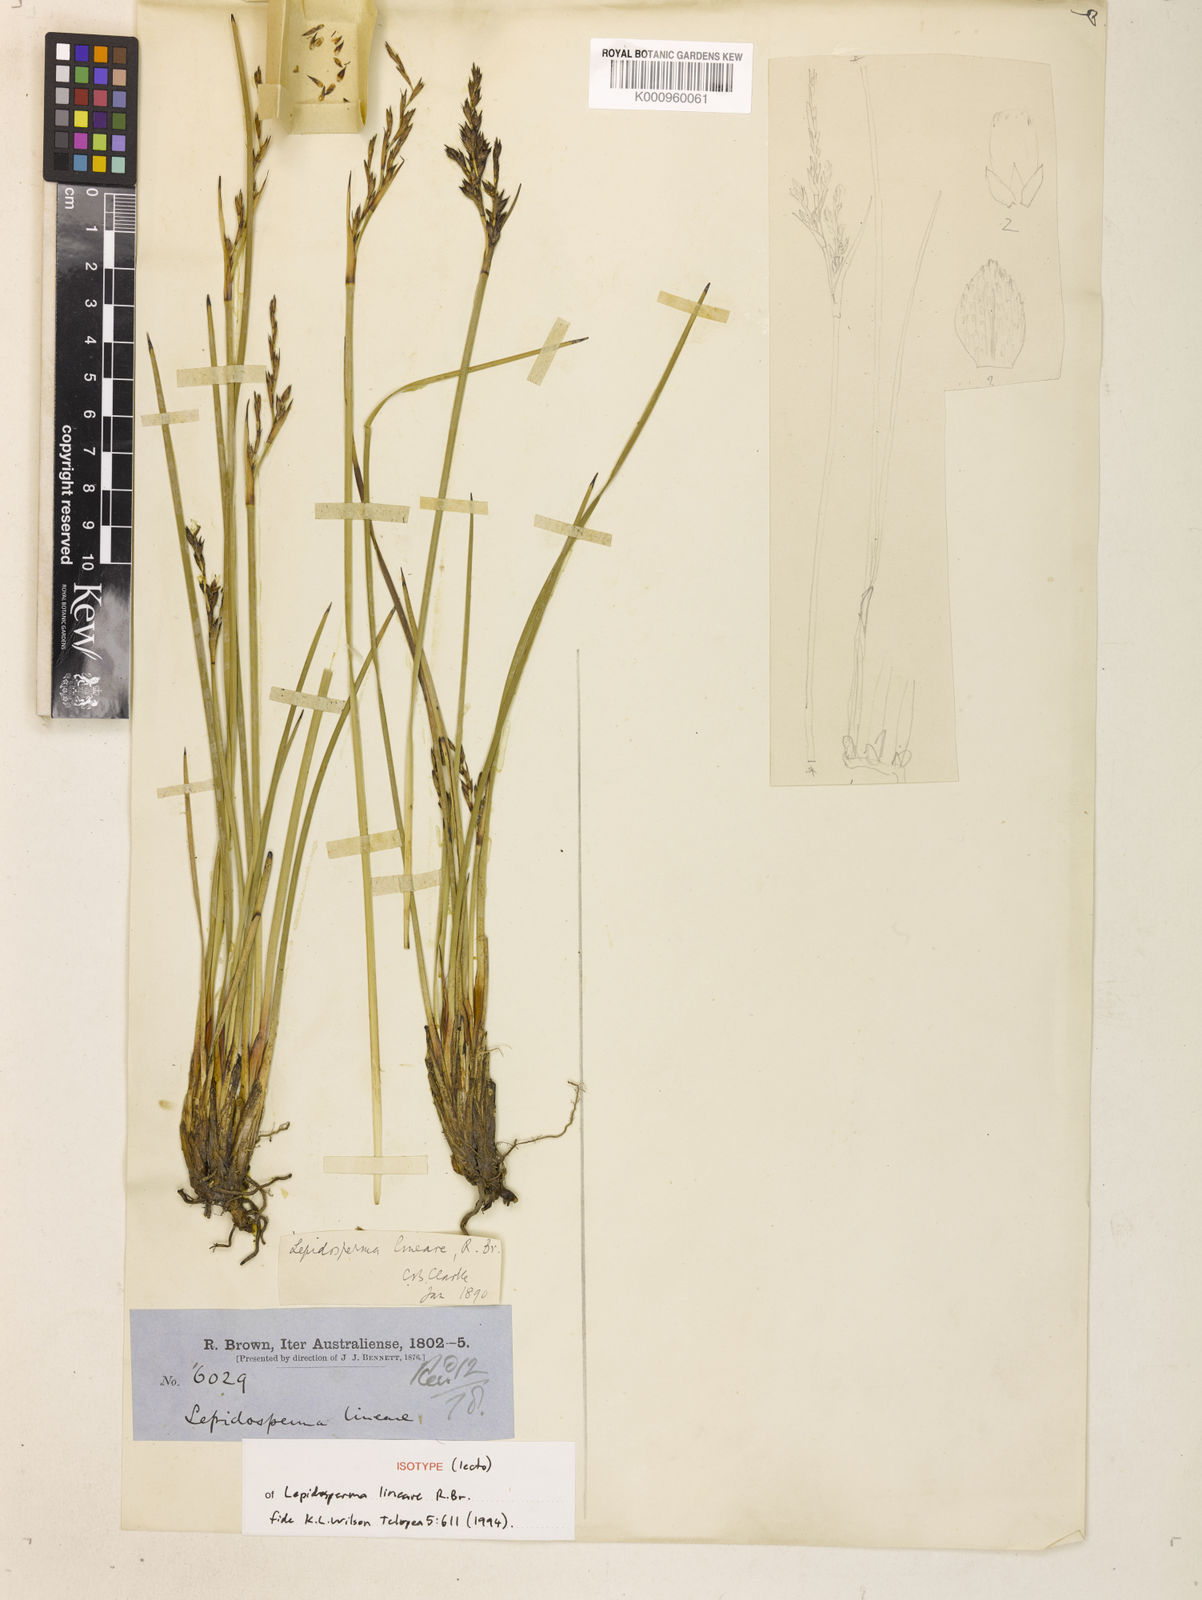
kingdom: Plantae
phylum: Tracheophyta
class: Liliopsida
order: Poales
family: Cyperaceae
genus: Lepidosperma
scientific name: Lepidosperma lineare
